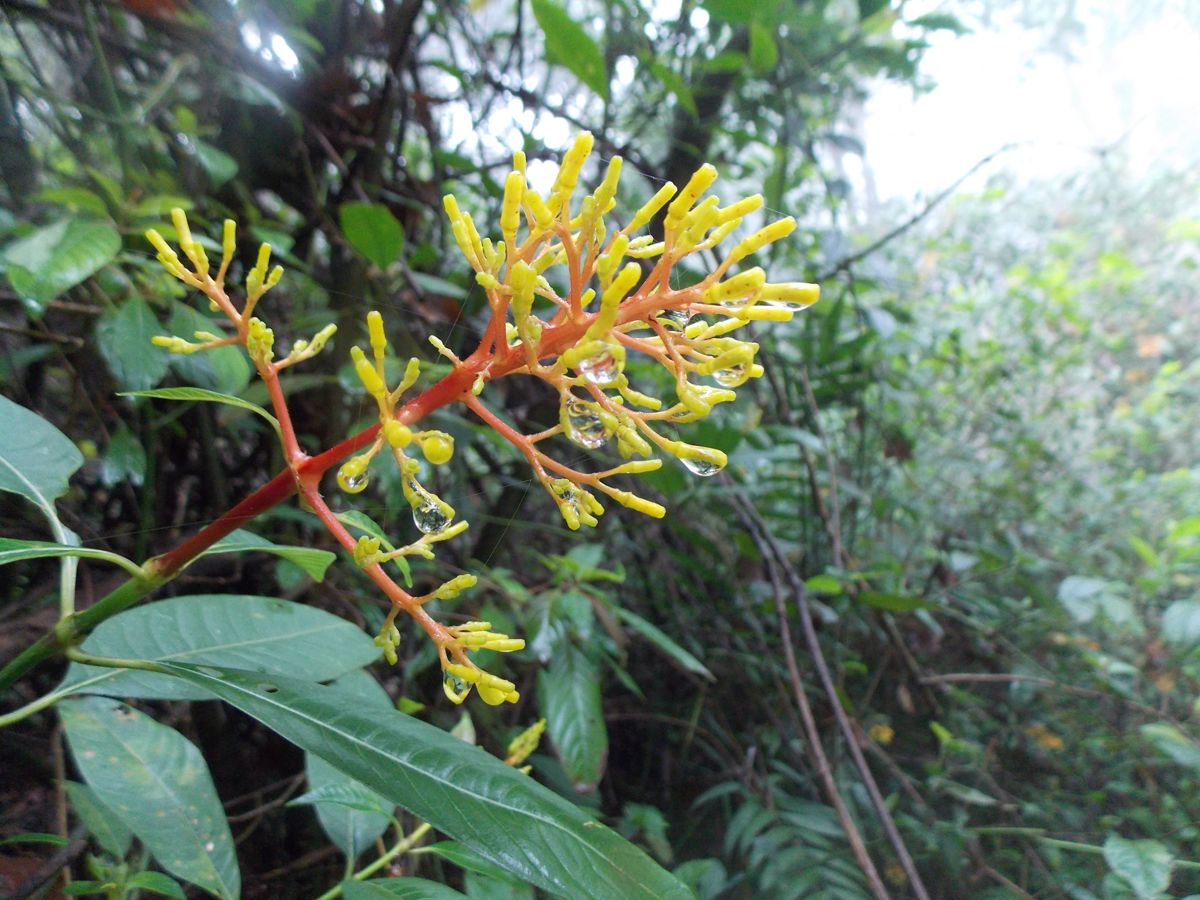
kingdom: Plantae
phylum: Tracheophyta
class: Magnoliopsida
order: Gentianales
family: Rubiaceae
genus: Palicourea
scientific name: Palicourea padifolia
